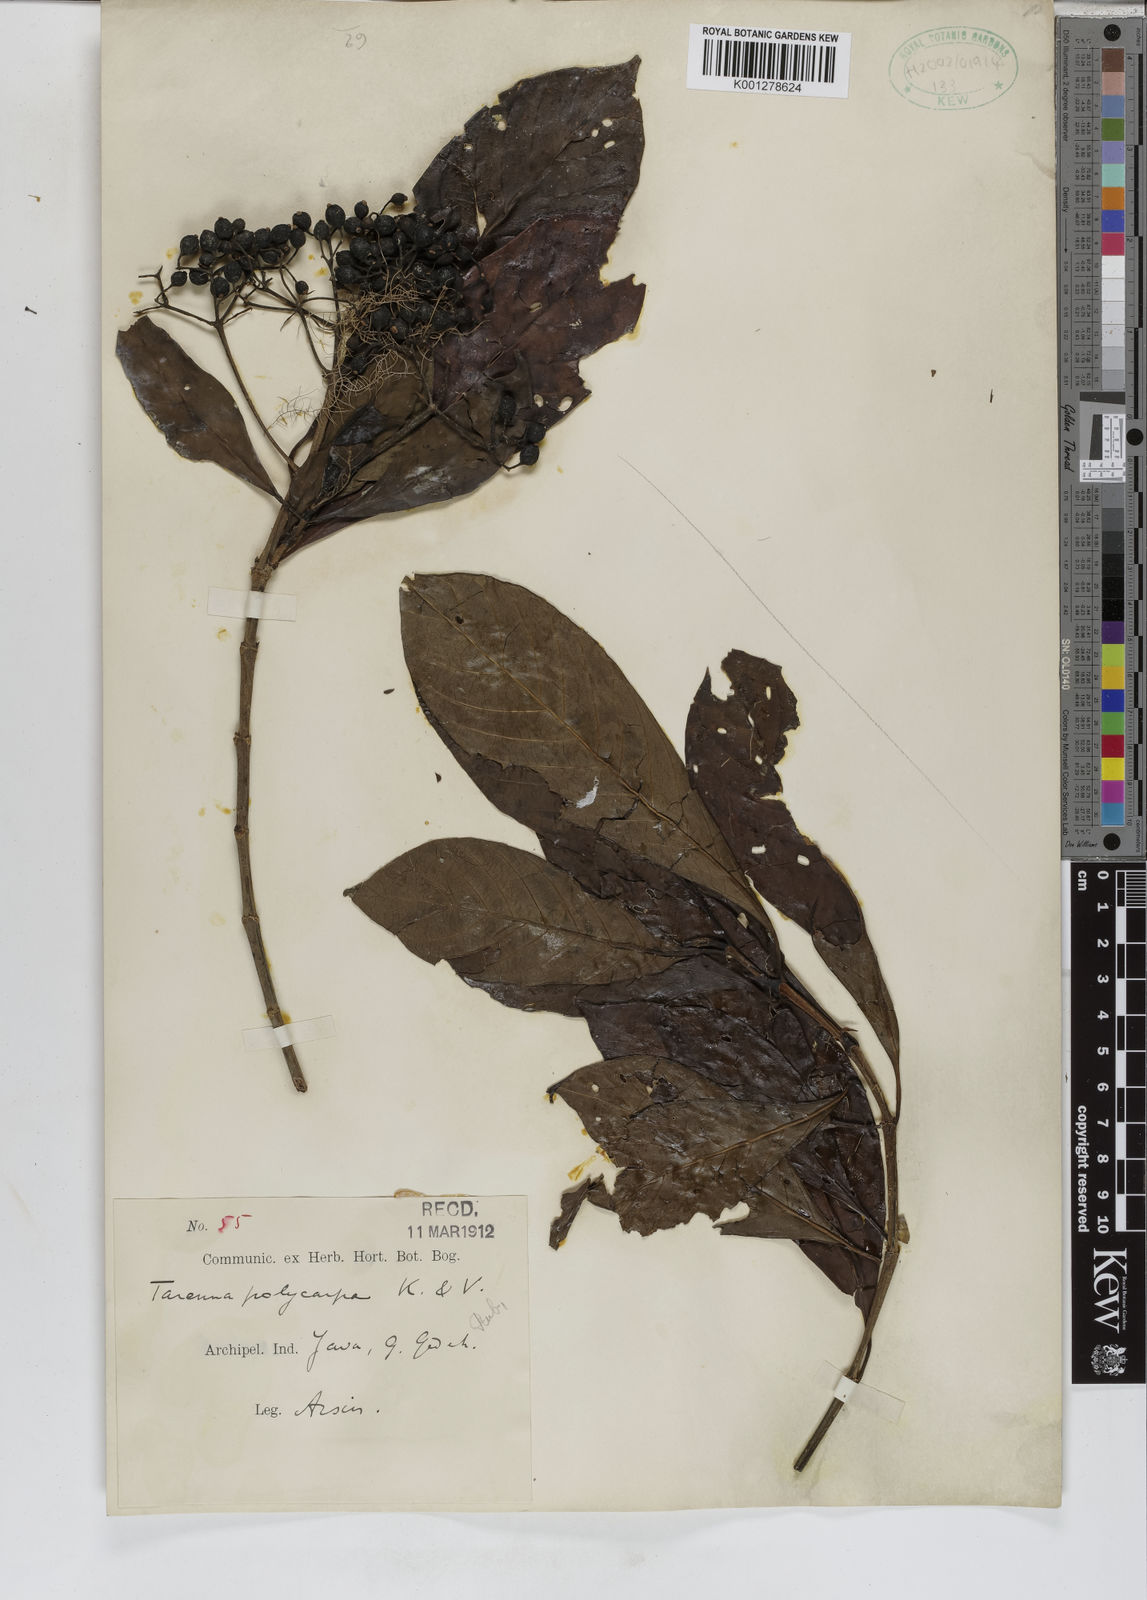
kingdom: Plantae
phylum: Tracheophyta
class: Magnoliopsida
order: Gentianales
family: Rubiaceae
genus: Tarenna
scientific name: Tarenna polycarpa
